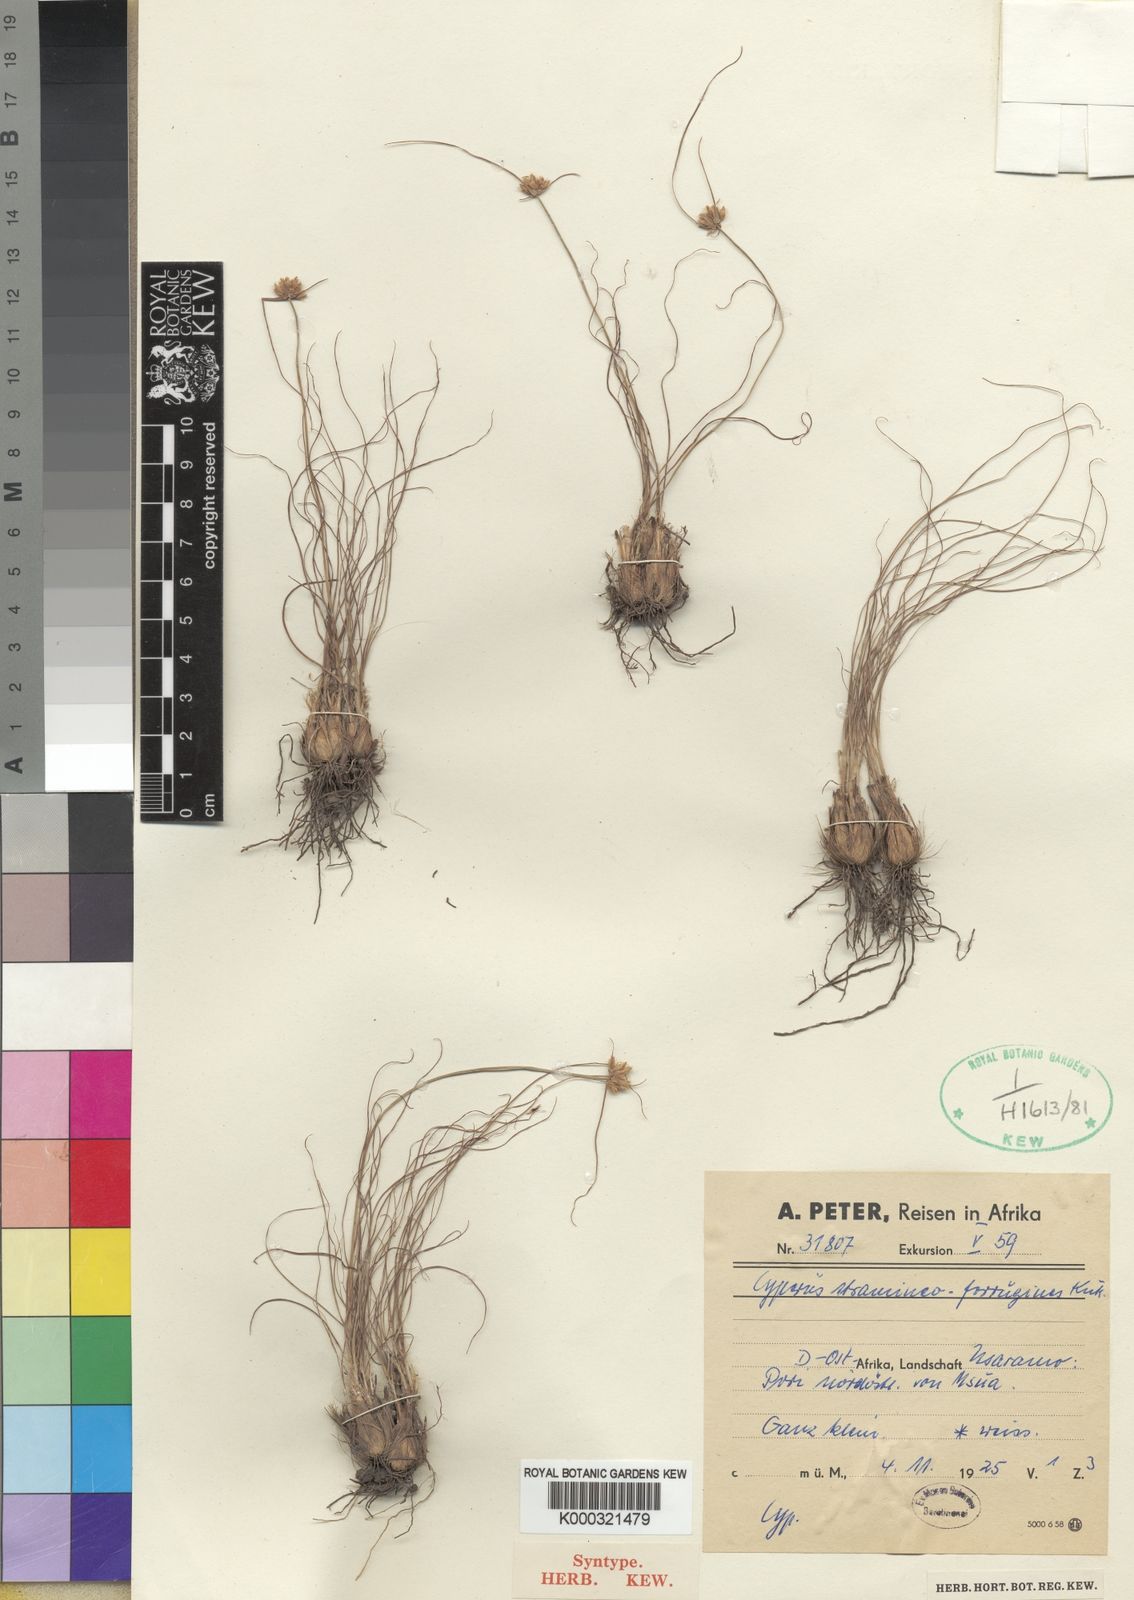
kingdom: Plantae
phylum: Tracheophyta
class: Liliopsida
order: Poales
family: Cyperaceae
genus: Cyperus
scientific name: Cyperus
